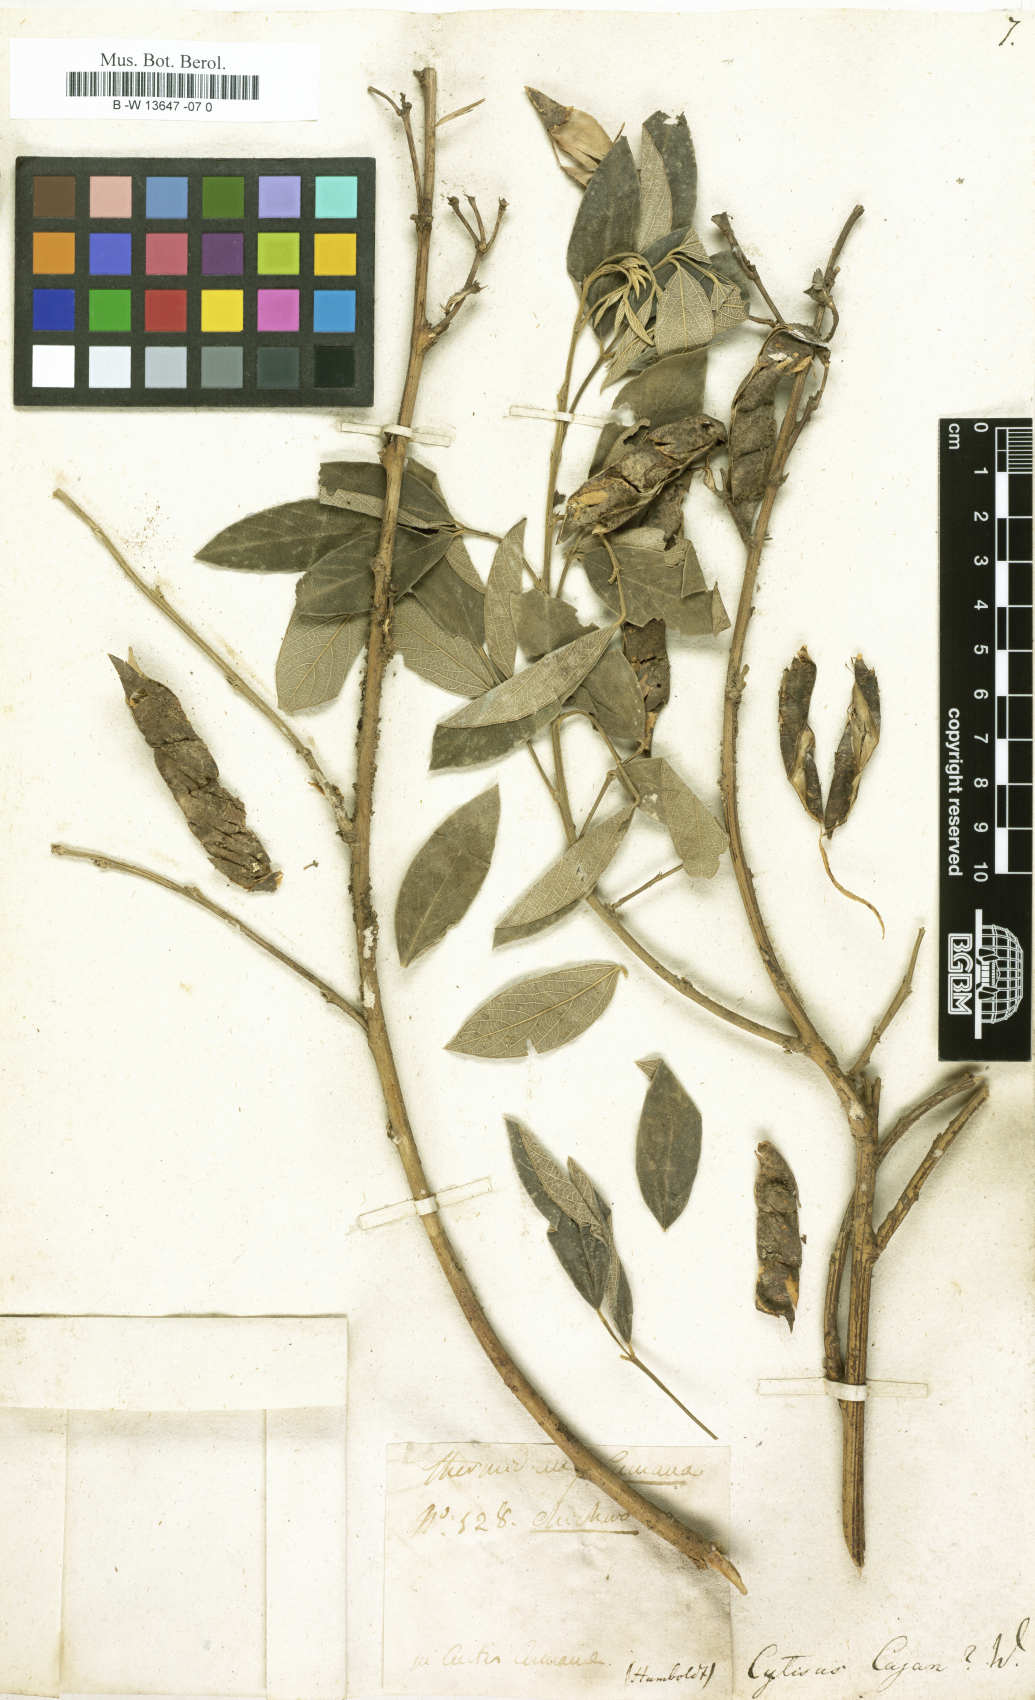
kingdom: Plantae
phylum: Tracheophyta
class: Magnoliopsida
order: Fabales
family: Fabaceae
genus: Cajanus
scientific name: Cajanus cajan
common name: Pigeonpea
